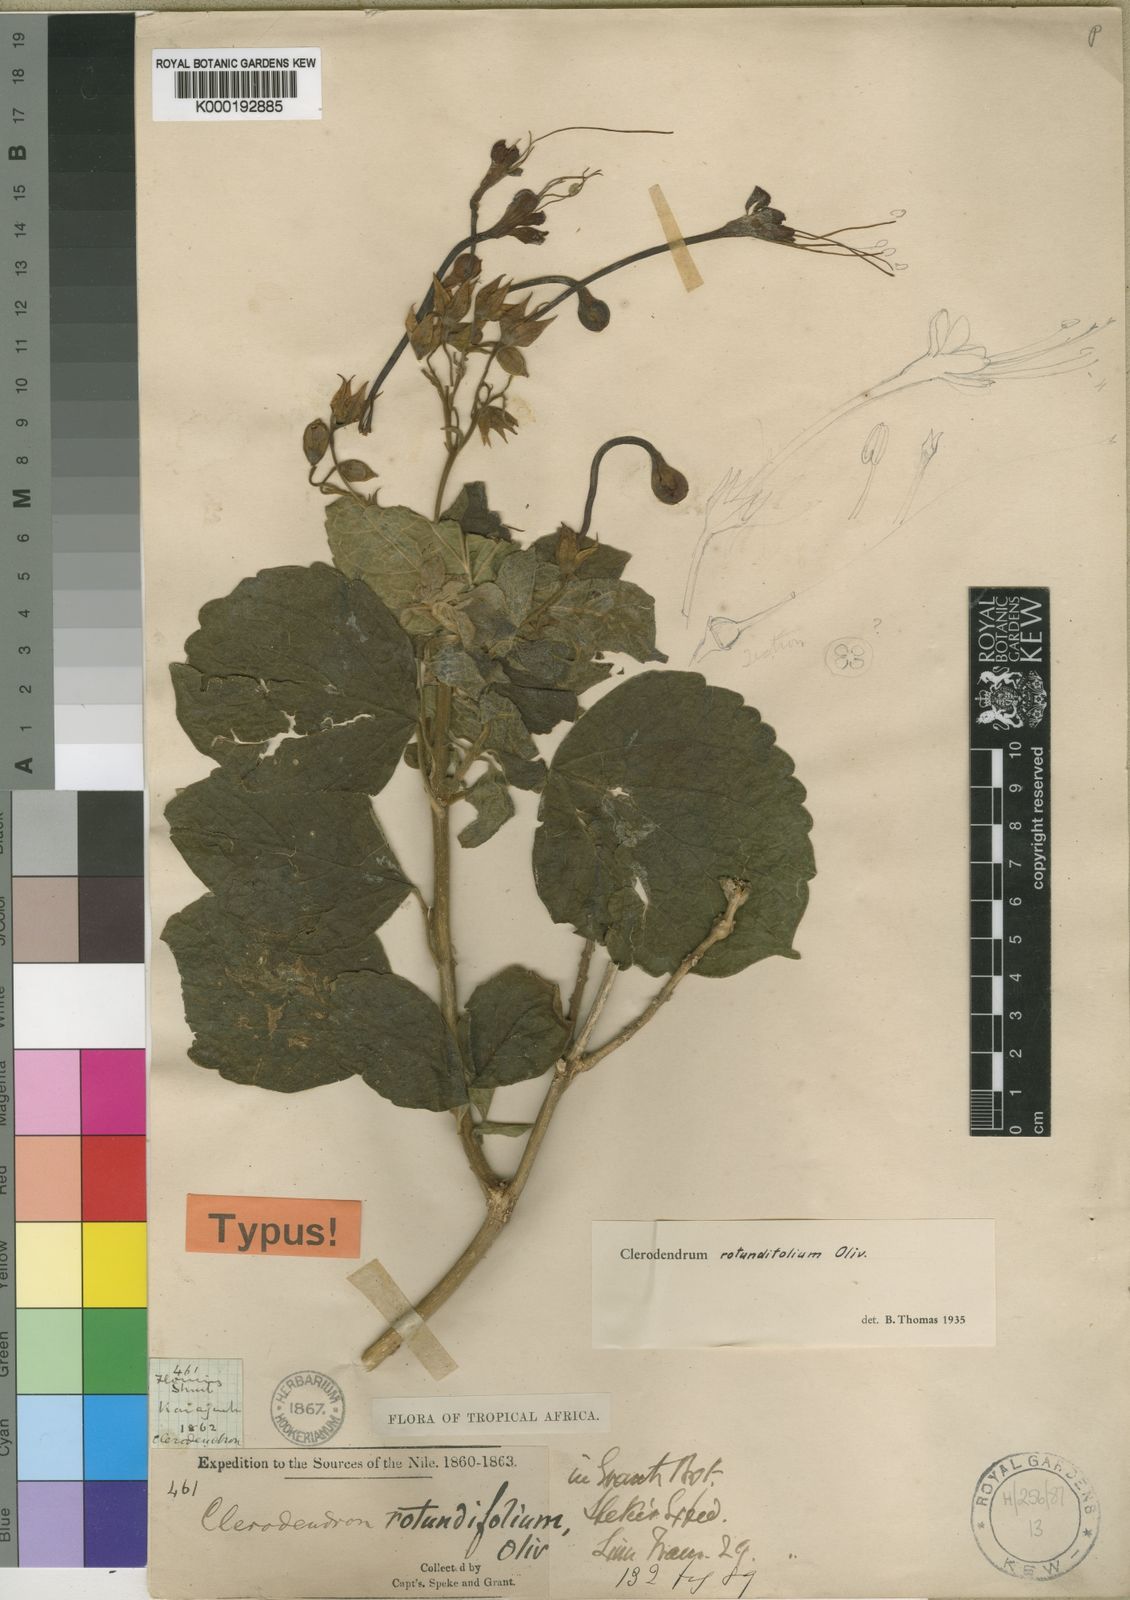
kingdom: Plantae
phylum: Tracheophyta
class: Magnoliopsida
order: Lamiales
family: Lamiaceae
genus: Clerodendrum
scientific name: Clerodendrum rotundifolium
